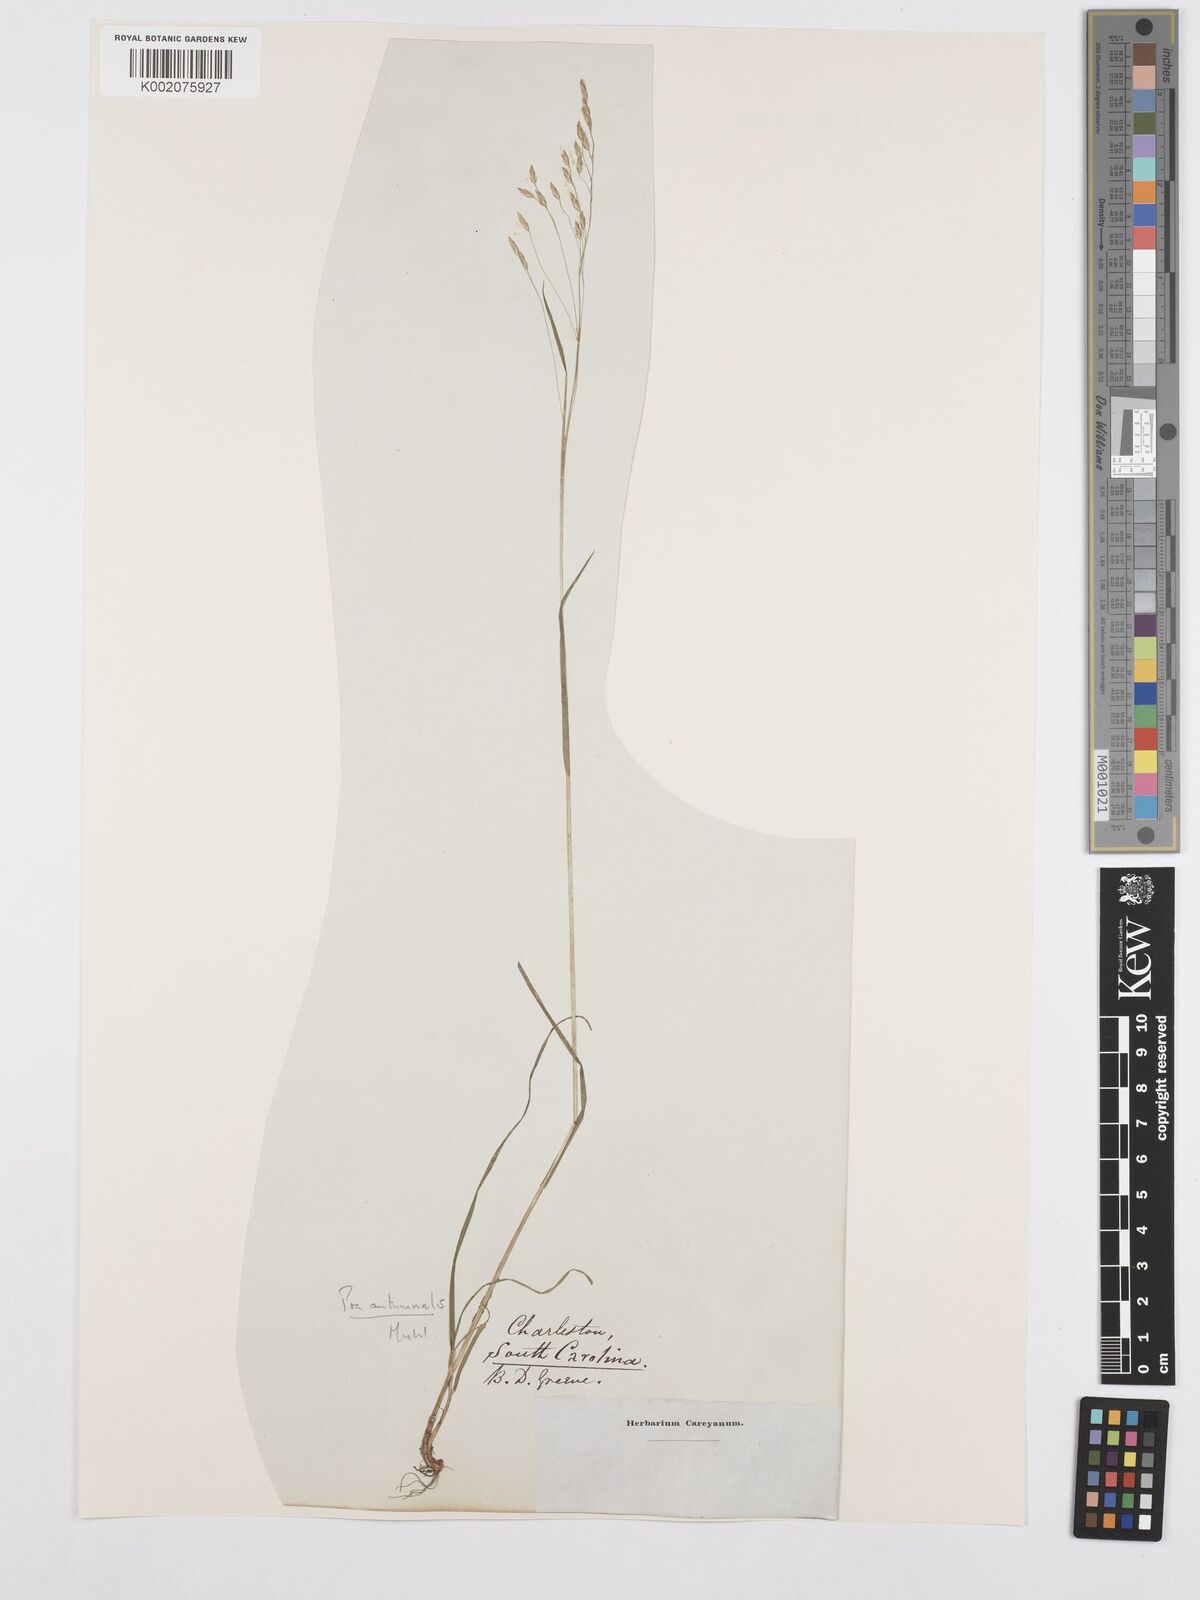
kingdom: Plantae
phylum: Tracheophyta
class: Liliopsida
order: Poales
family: Poaceae
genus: Poa
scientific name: Poa autumnalis
